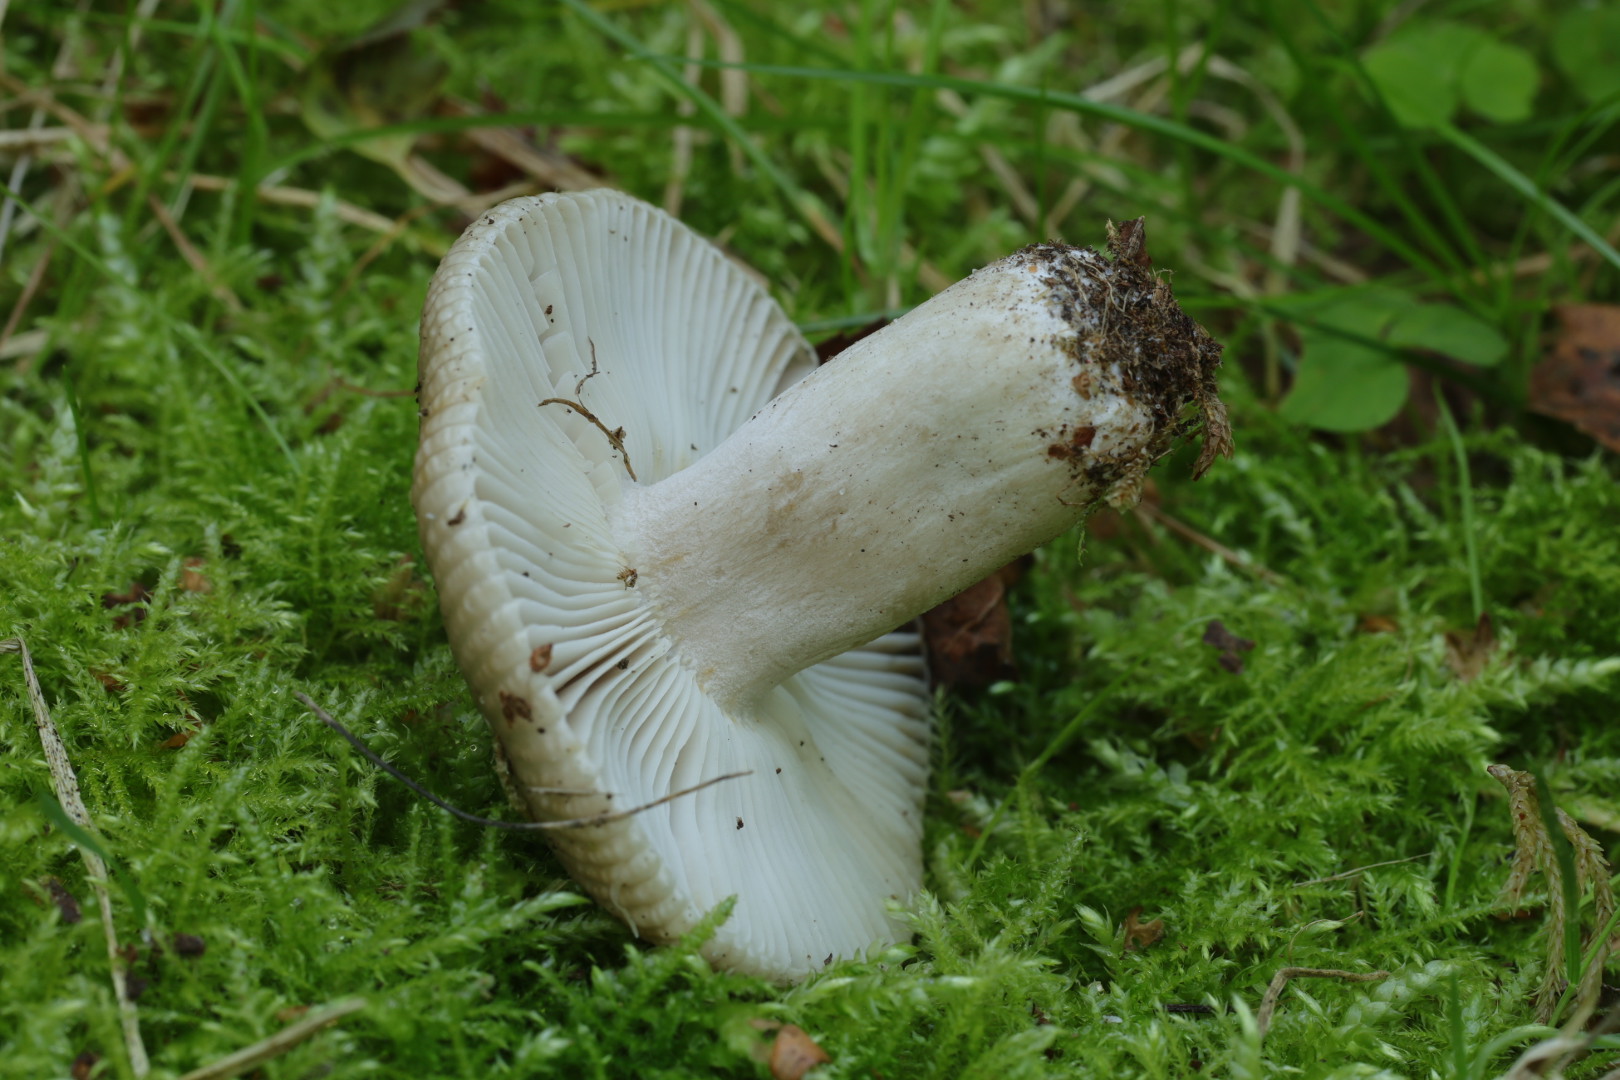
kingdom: Fungi
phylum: Basidiomycota
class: Agaricomycetes
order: Russulales
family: Russulaceae
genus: Russula
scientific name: Russula amoenolens
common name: skarp kam-skørhat
